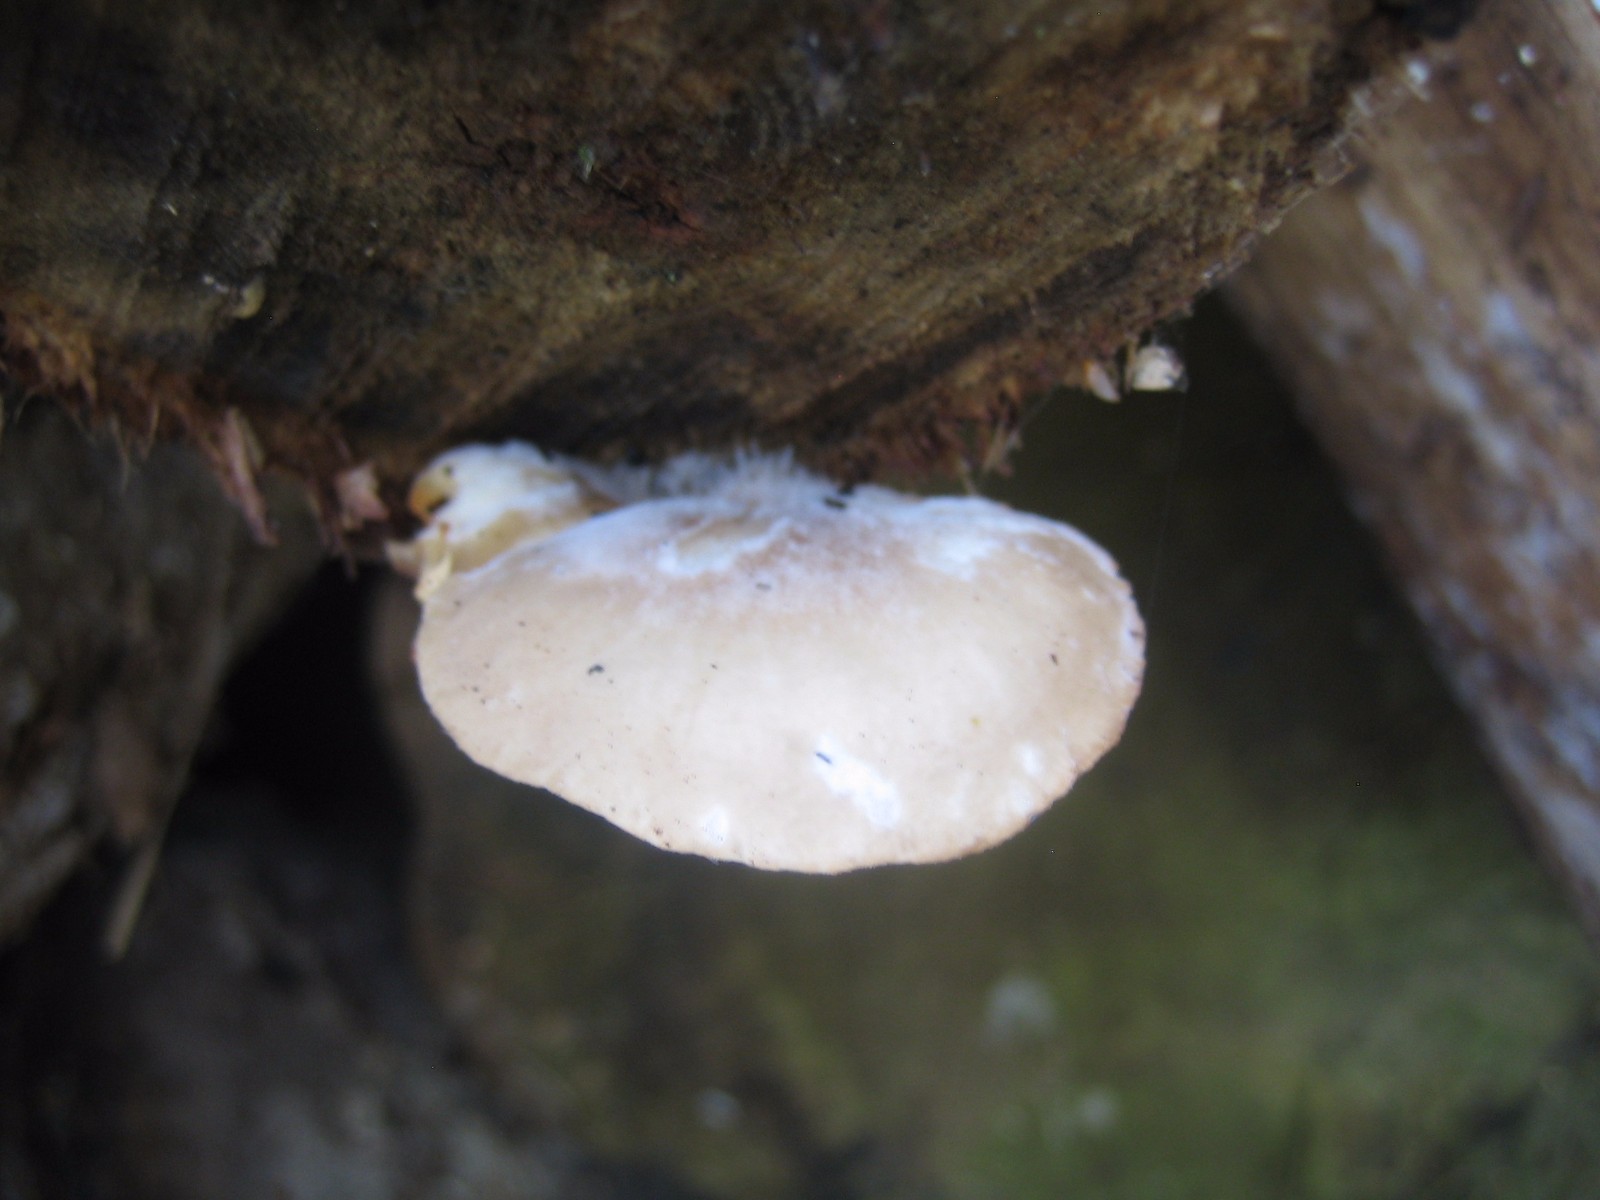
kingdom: Fungi
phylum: Basidiomycota
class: Agaricomycetes
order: Agaricales
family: Pleurotaceae
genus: Pleurotus
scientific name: Pleurotus
